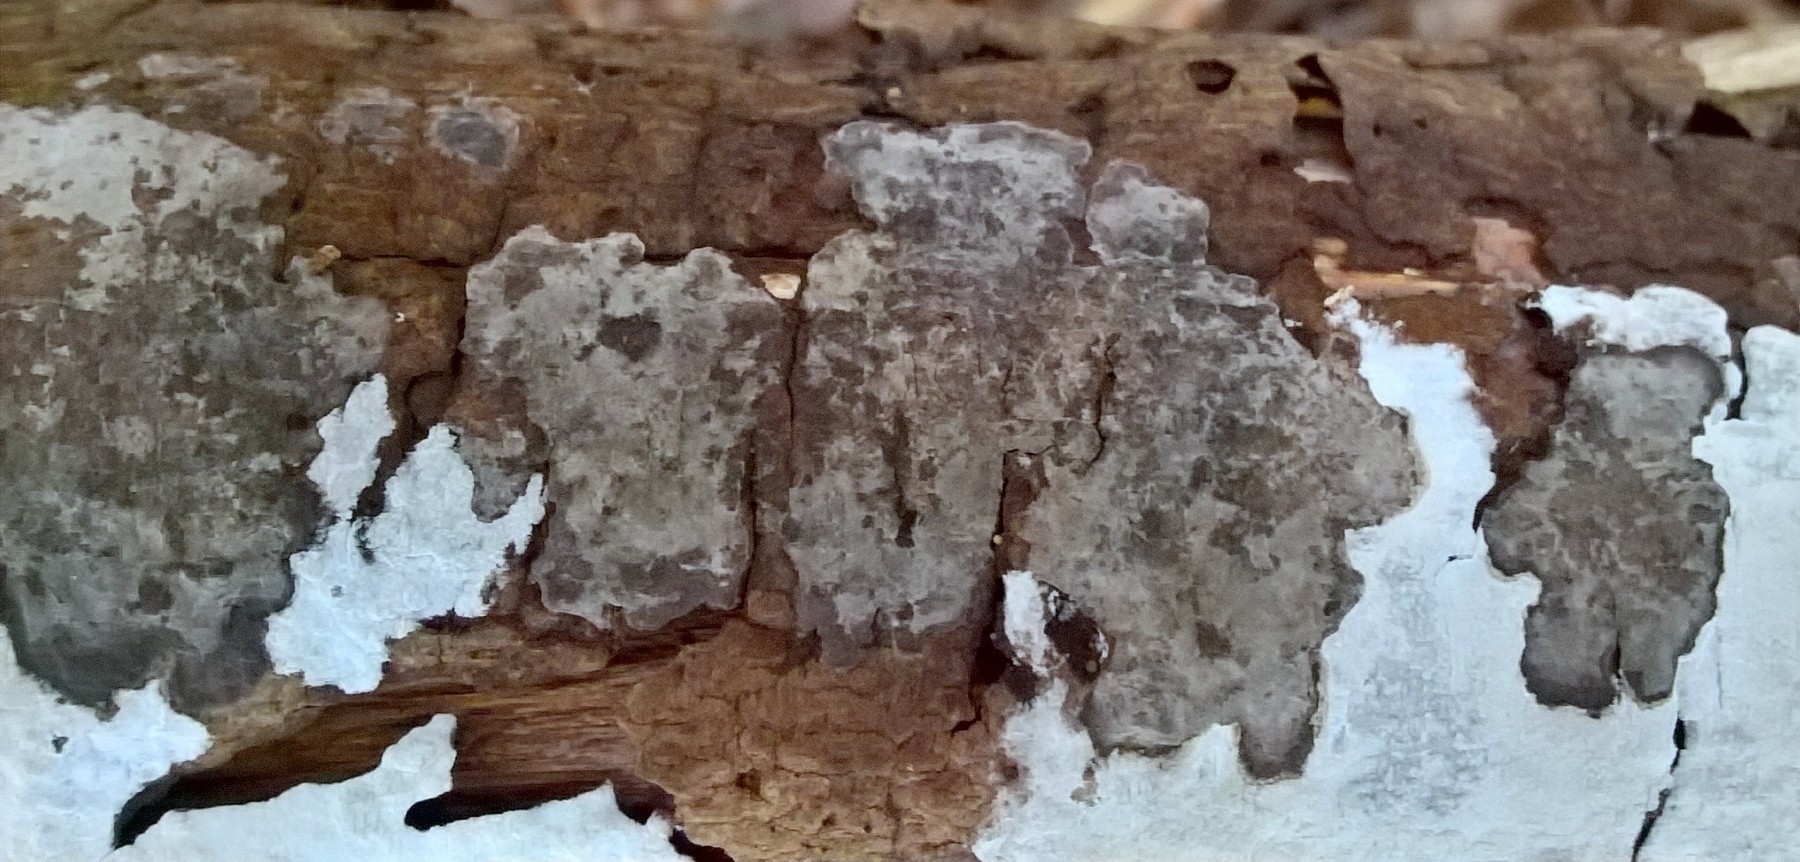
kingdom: Fungi
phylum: Basidiomycota
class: Agaricomycetes
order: Russulales
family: Peniophoraceae
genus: Peniophora
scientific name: Peniophora limitata
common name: mørkrandet voksskind
